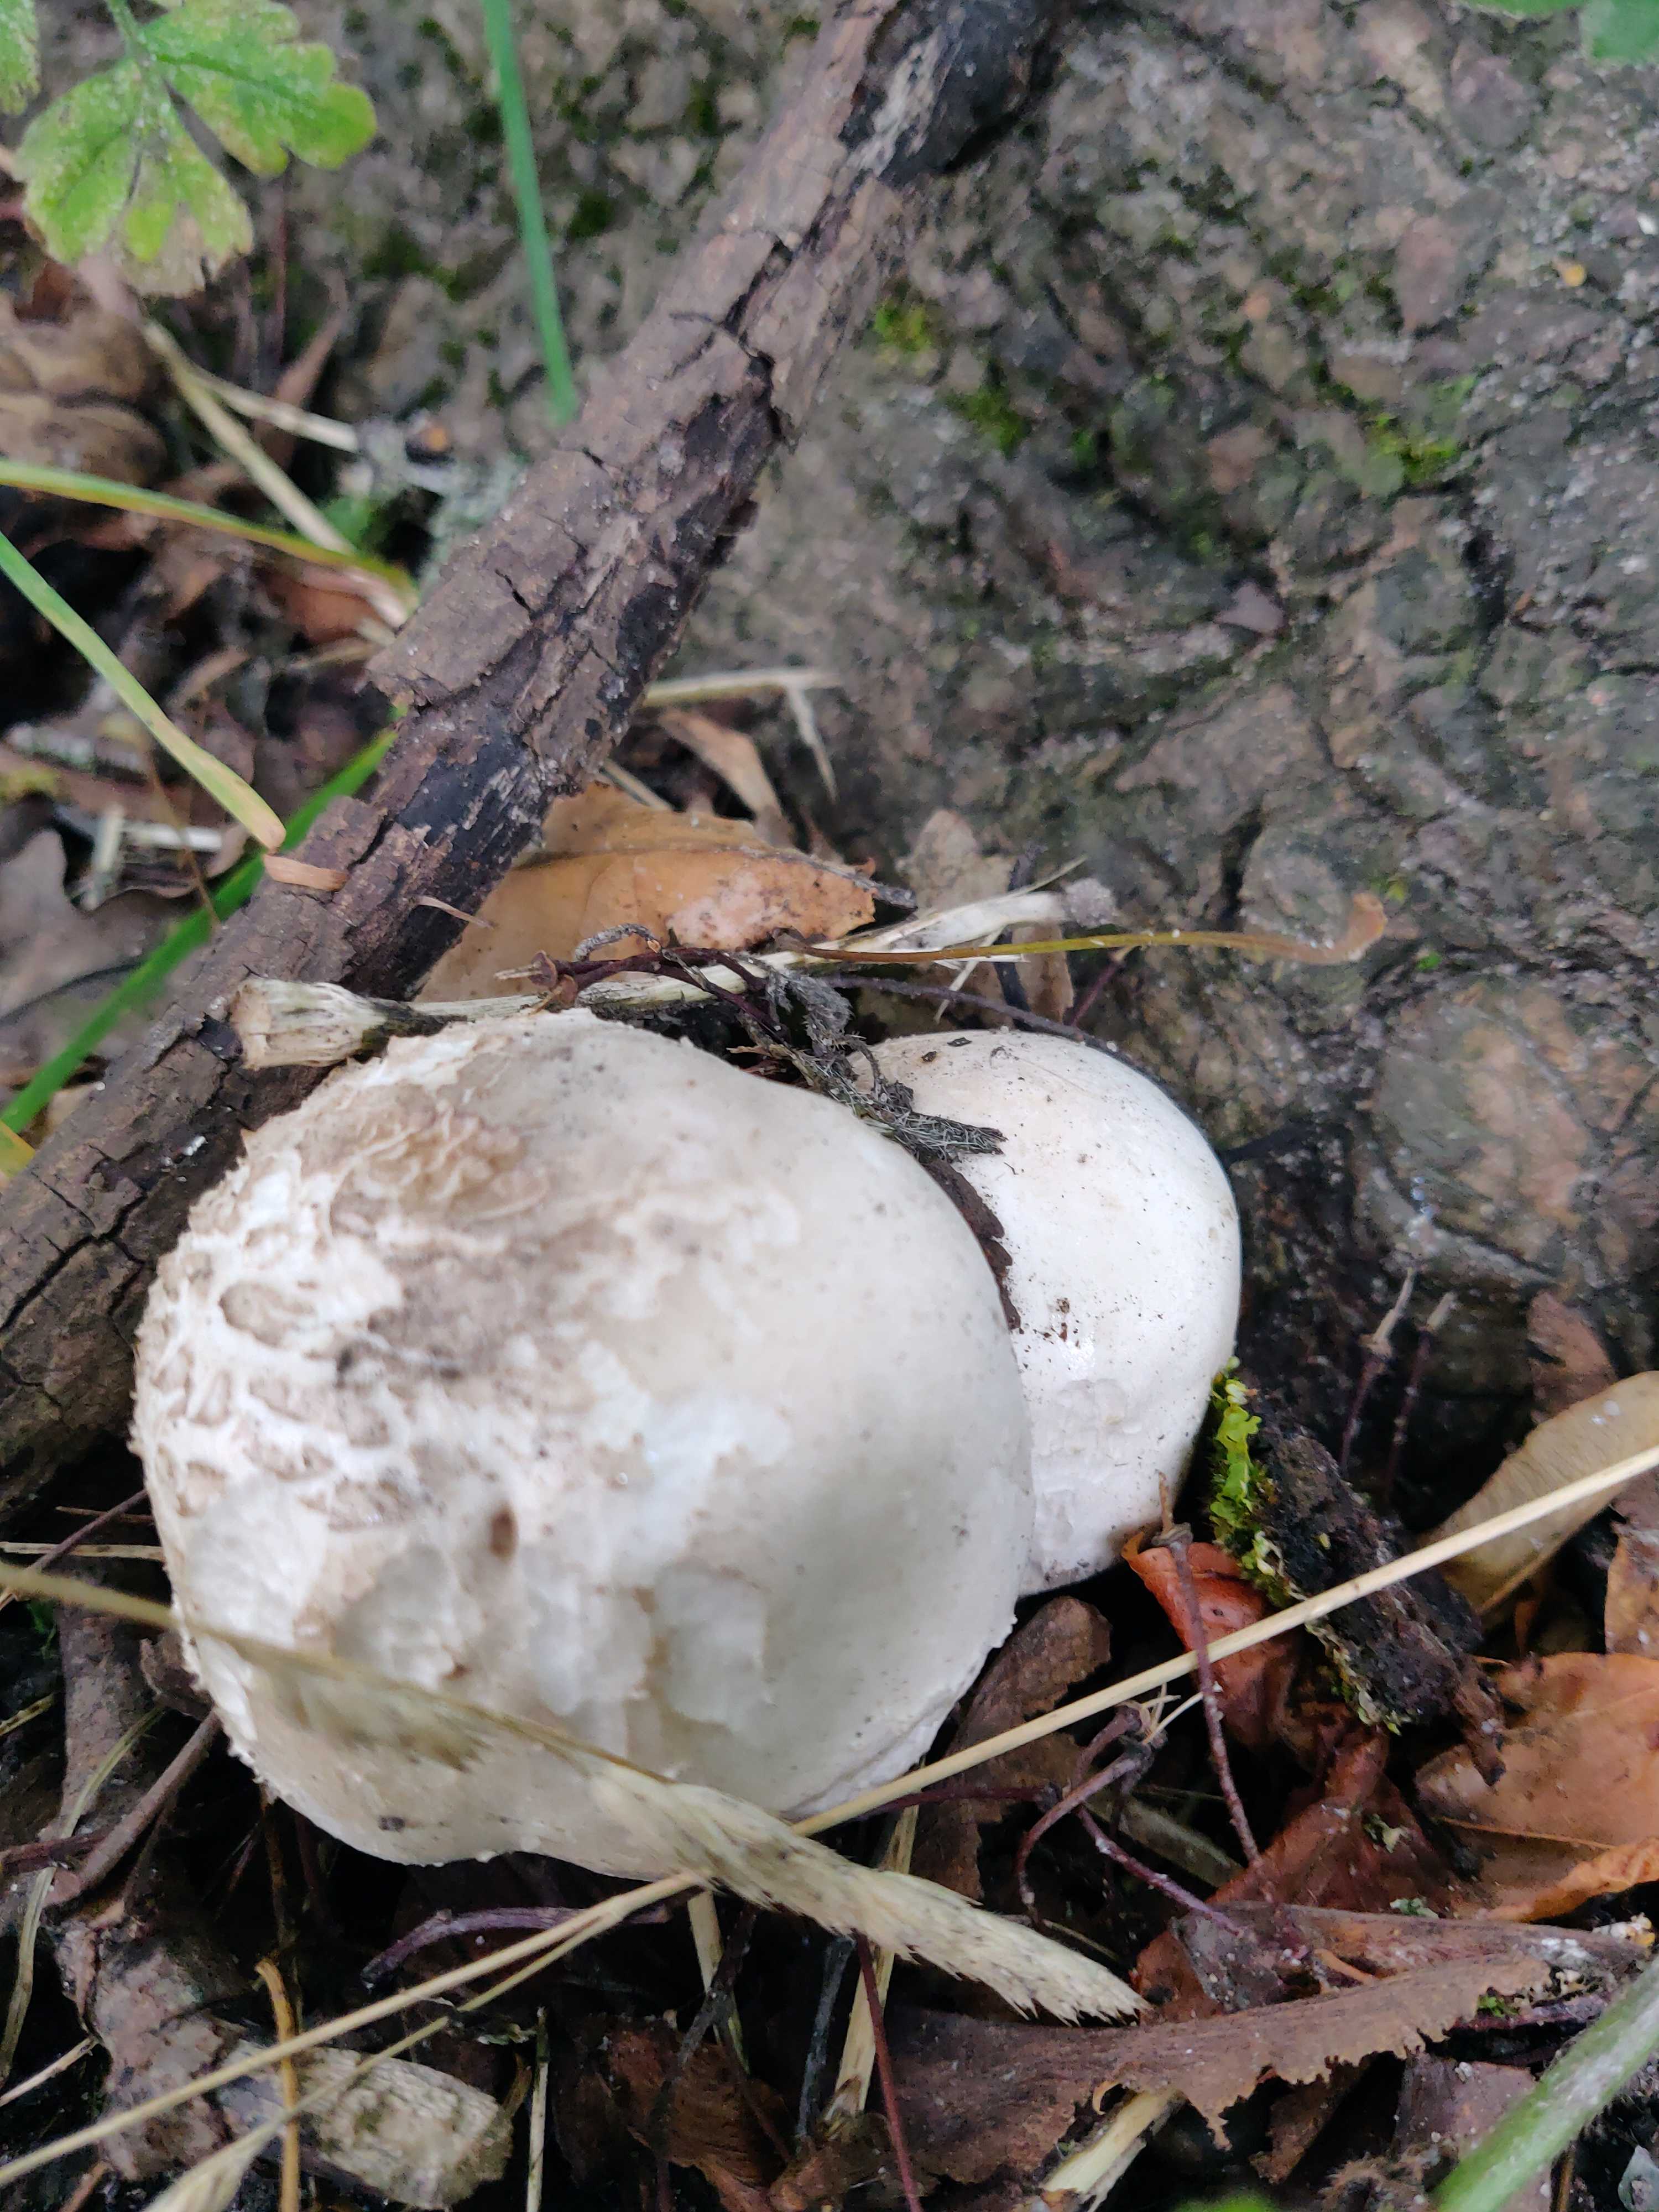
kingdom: Fungi
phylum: Basidiomycota
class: Agaricomycetes
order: Agaricales
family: Agaricaceae
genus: Agaricus
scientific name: Agaricus xanthodermus
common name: karbol-champignon
